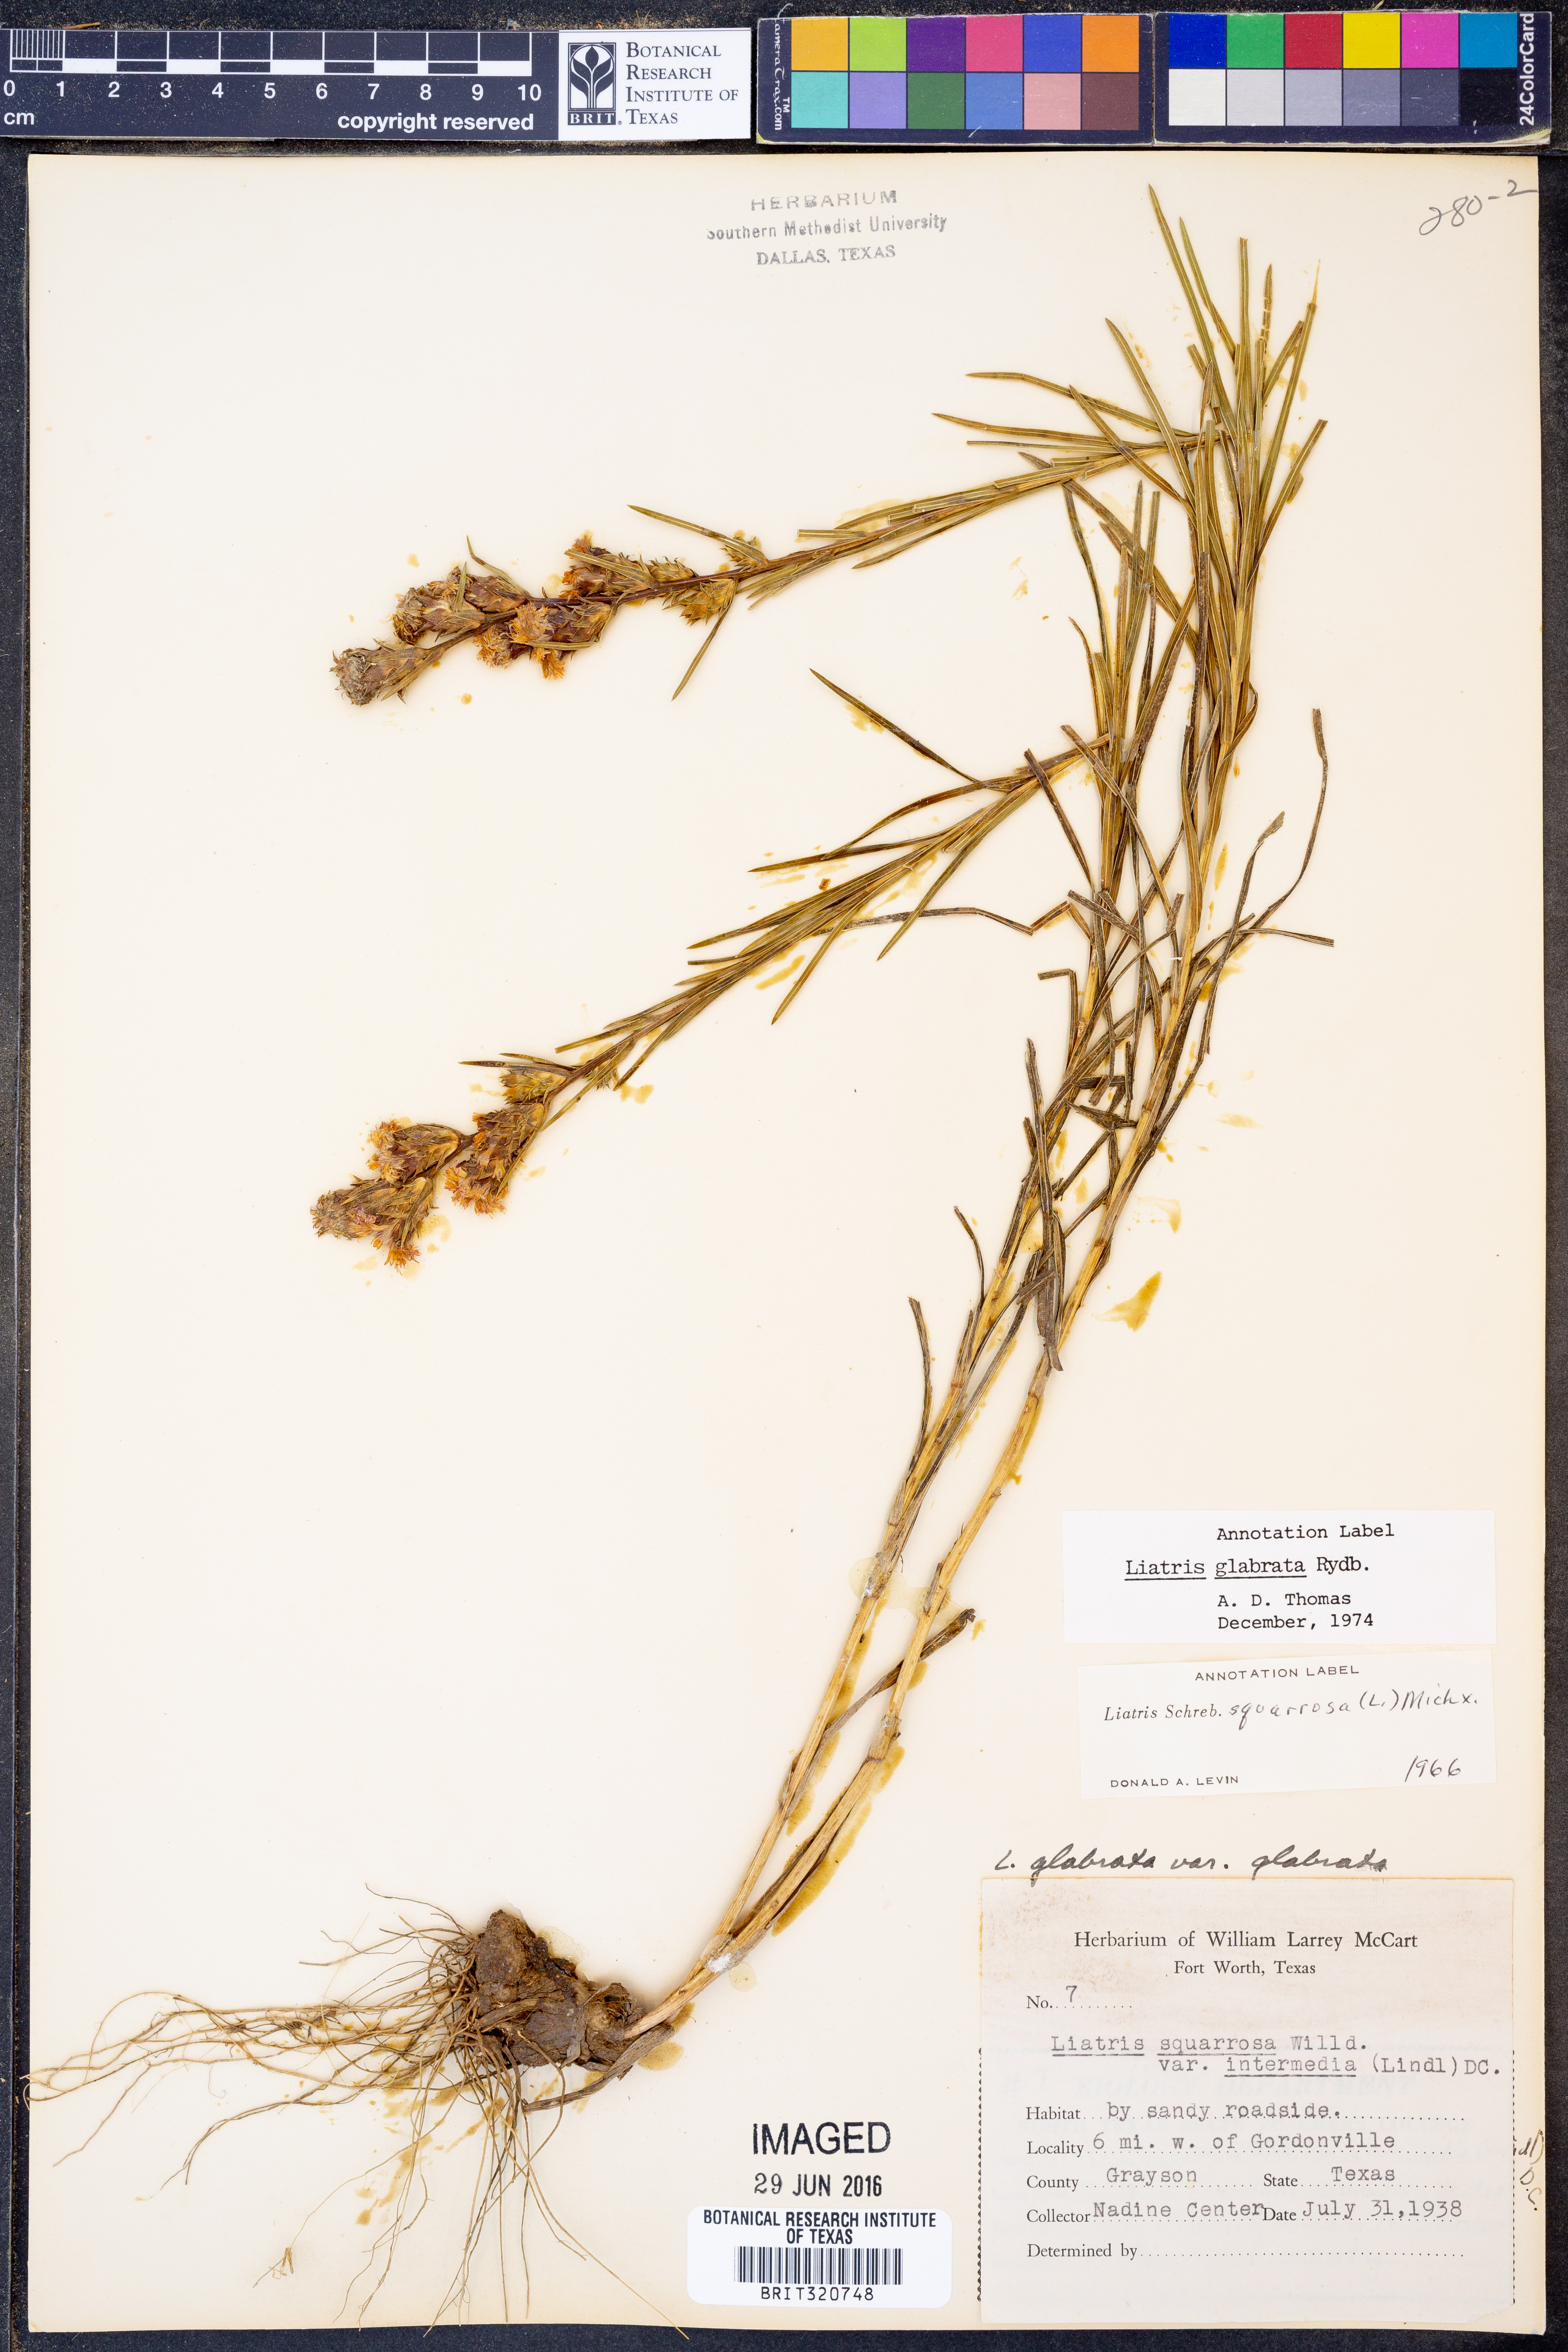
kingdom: Plantae
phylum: Tracheophyta
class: Magnoliopsida
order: Asterales
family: Asteraceae
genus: Liatris
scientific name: Liatris spicata
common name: Florist gayfeather
